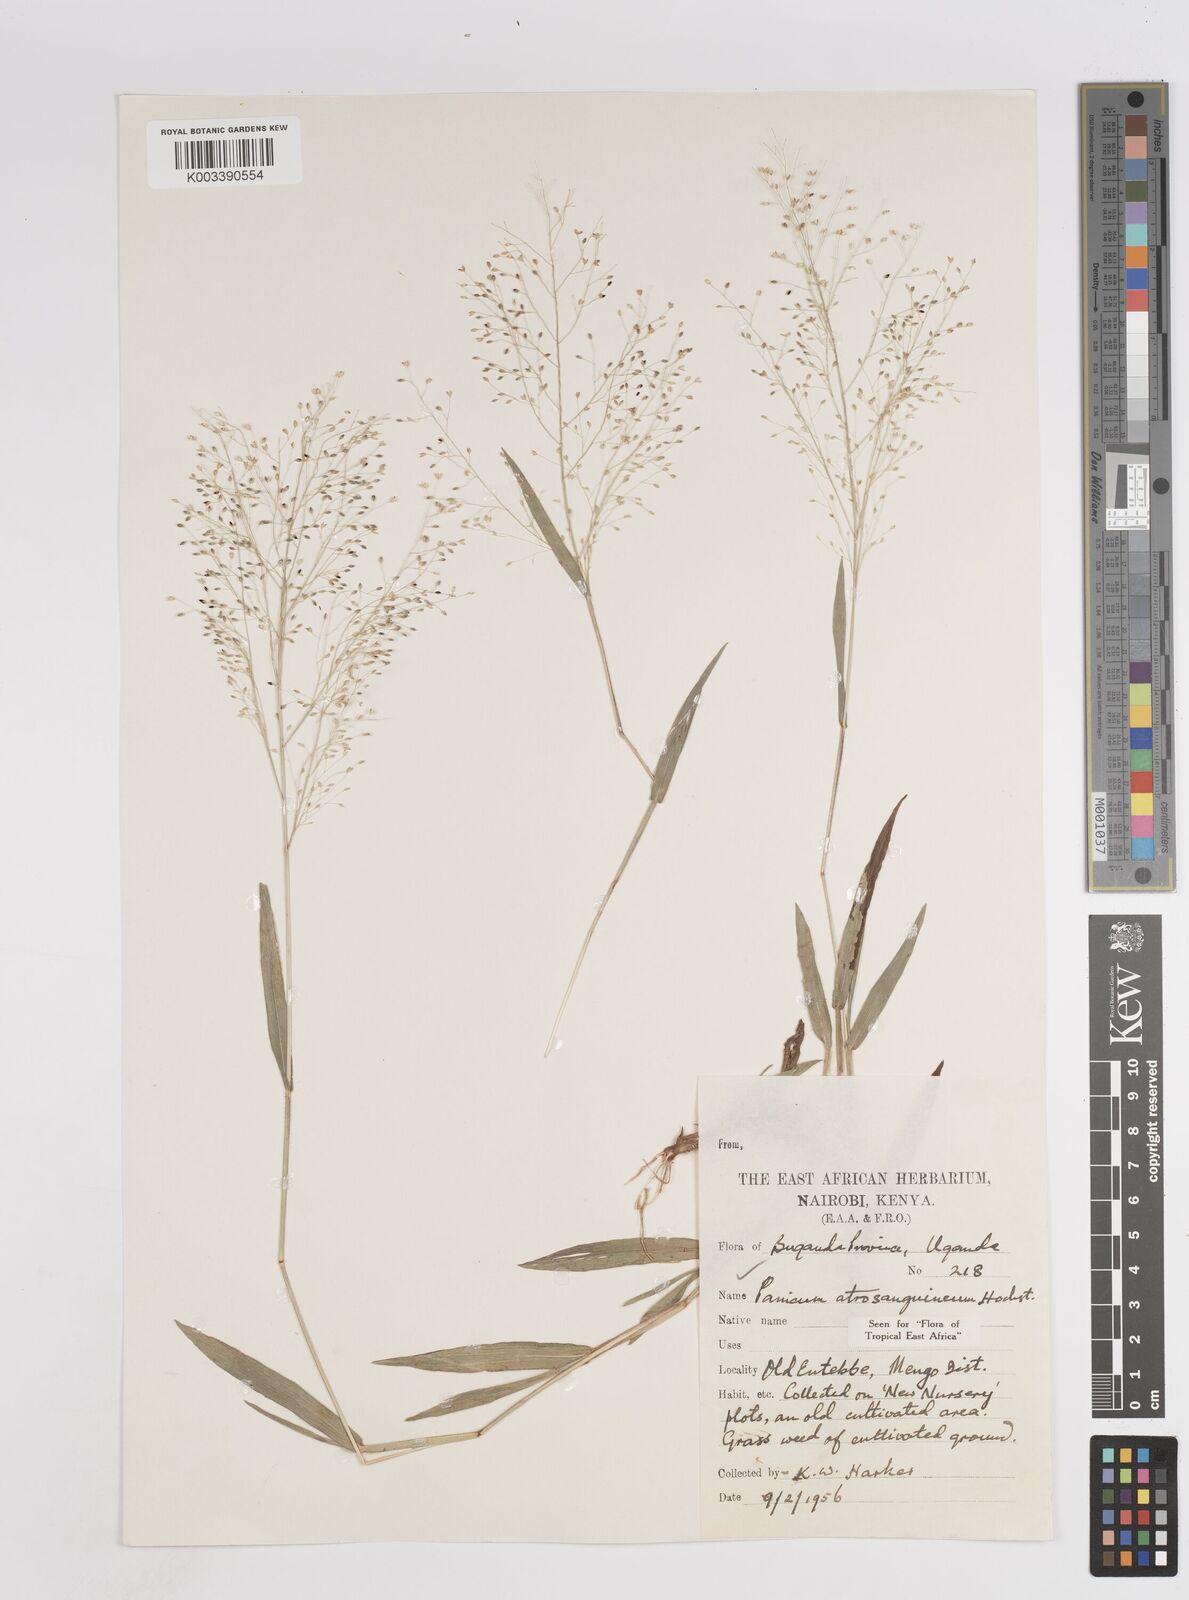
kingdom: Plantae
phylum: Tracheophyta
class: Liliopsida
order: Poales
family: Poaceae
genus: Panicum
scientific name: Panicum atrosanguineum
